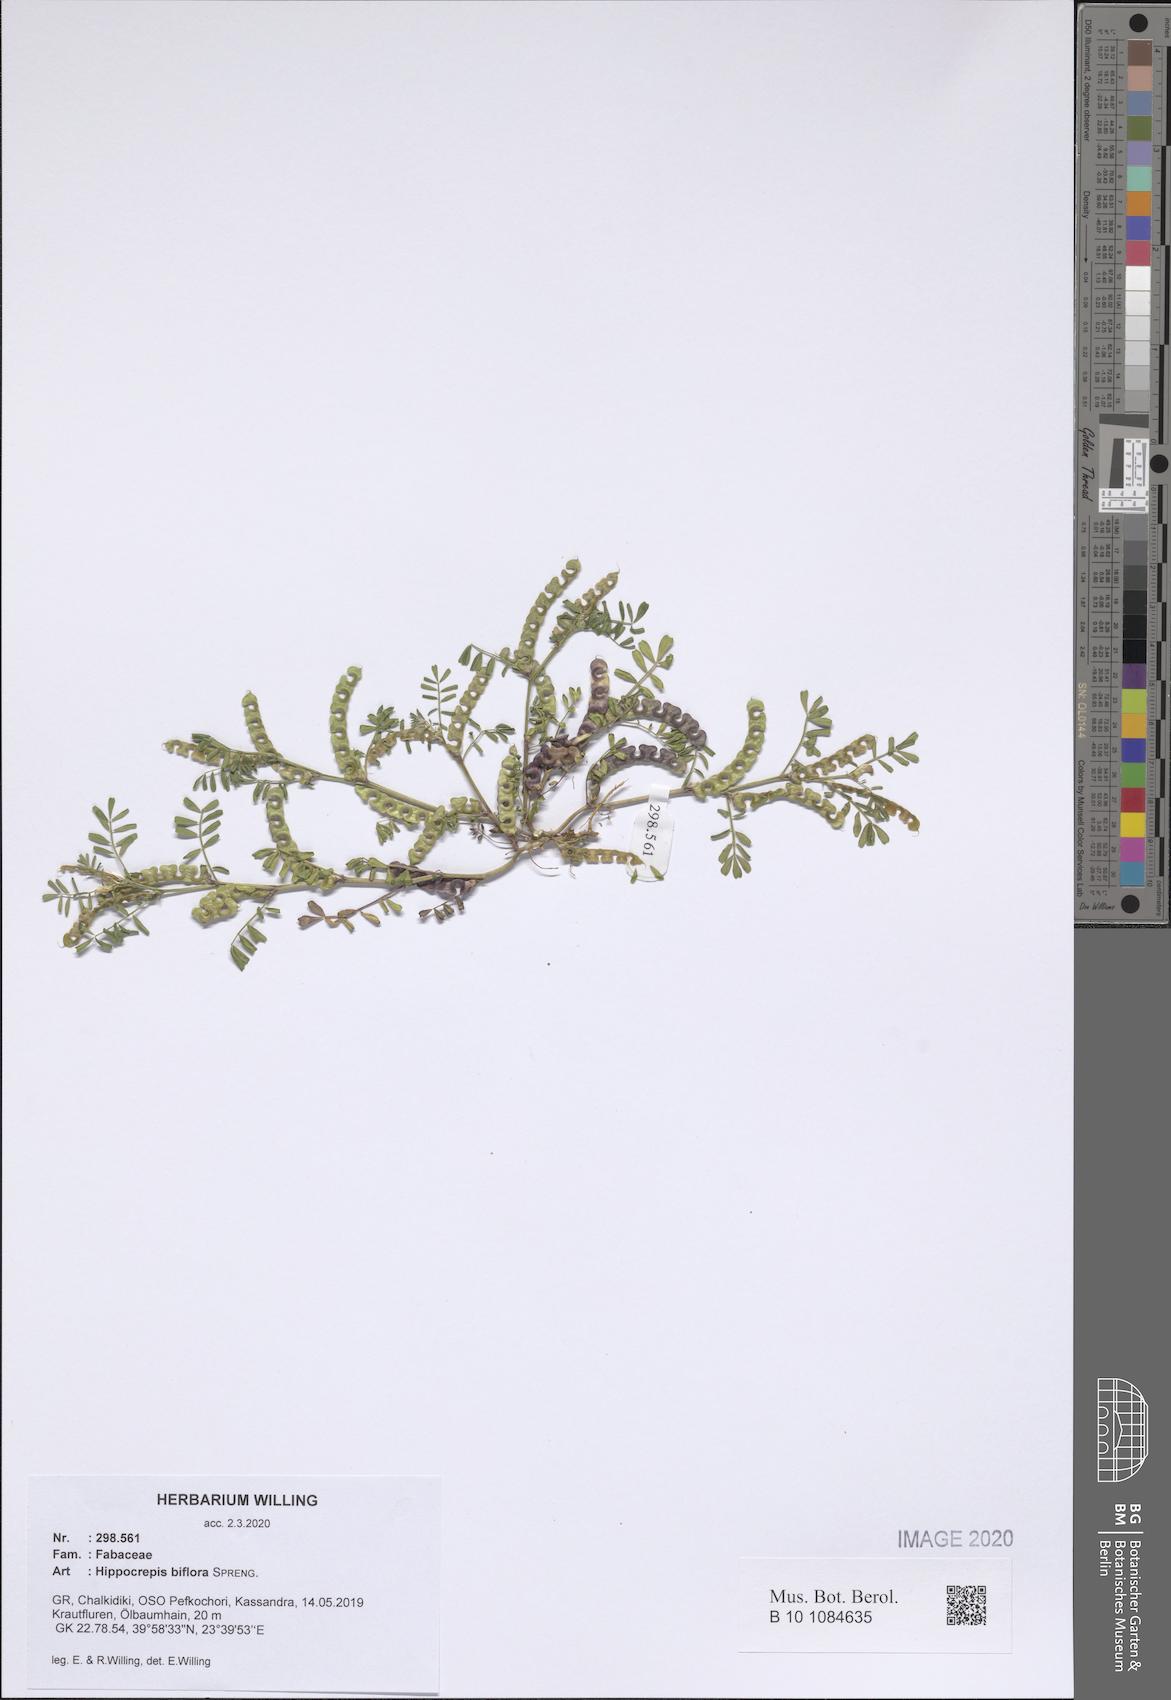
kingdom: Plantae
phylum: Tracheophyta
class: Magnoliopsida
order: Fabales
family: Fabaceae
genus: Hippocrepis
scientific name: Hippocrepis biflora
